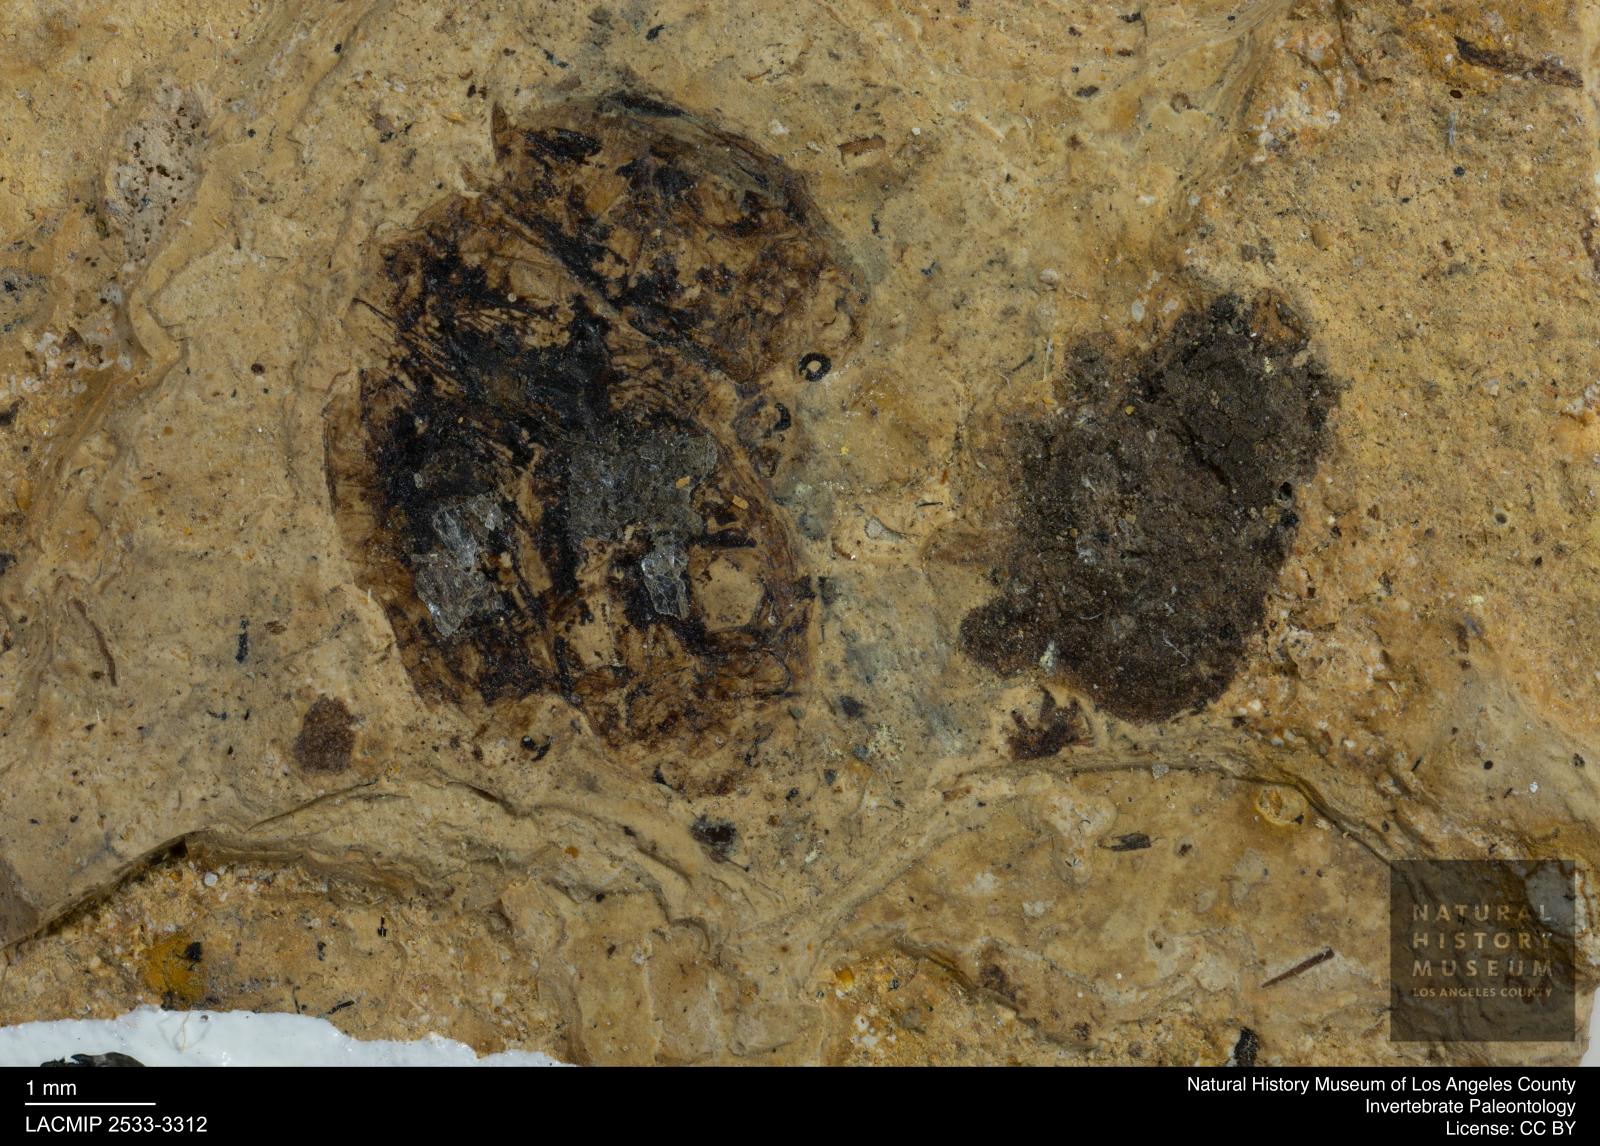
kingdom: Animalia
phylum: Arthropoda
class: Insecta
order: Coleoptera
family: Dytiscidae
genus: Laccophilus
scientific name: Laccophilus Palaeogyrinus strigatus
